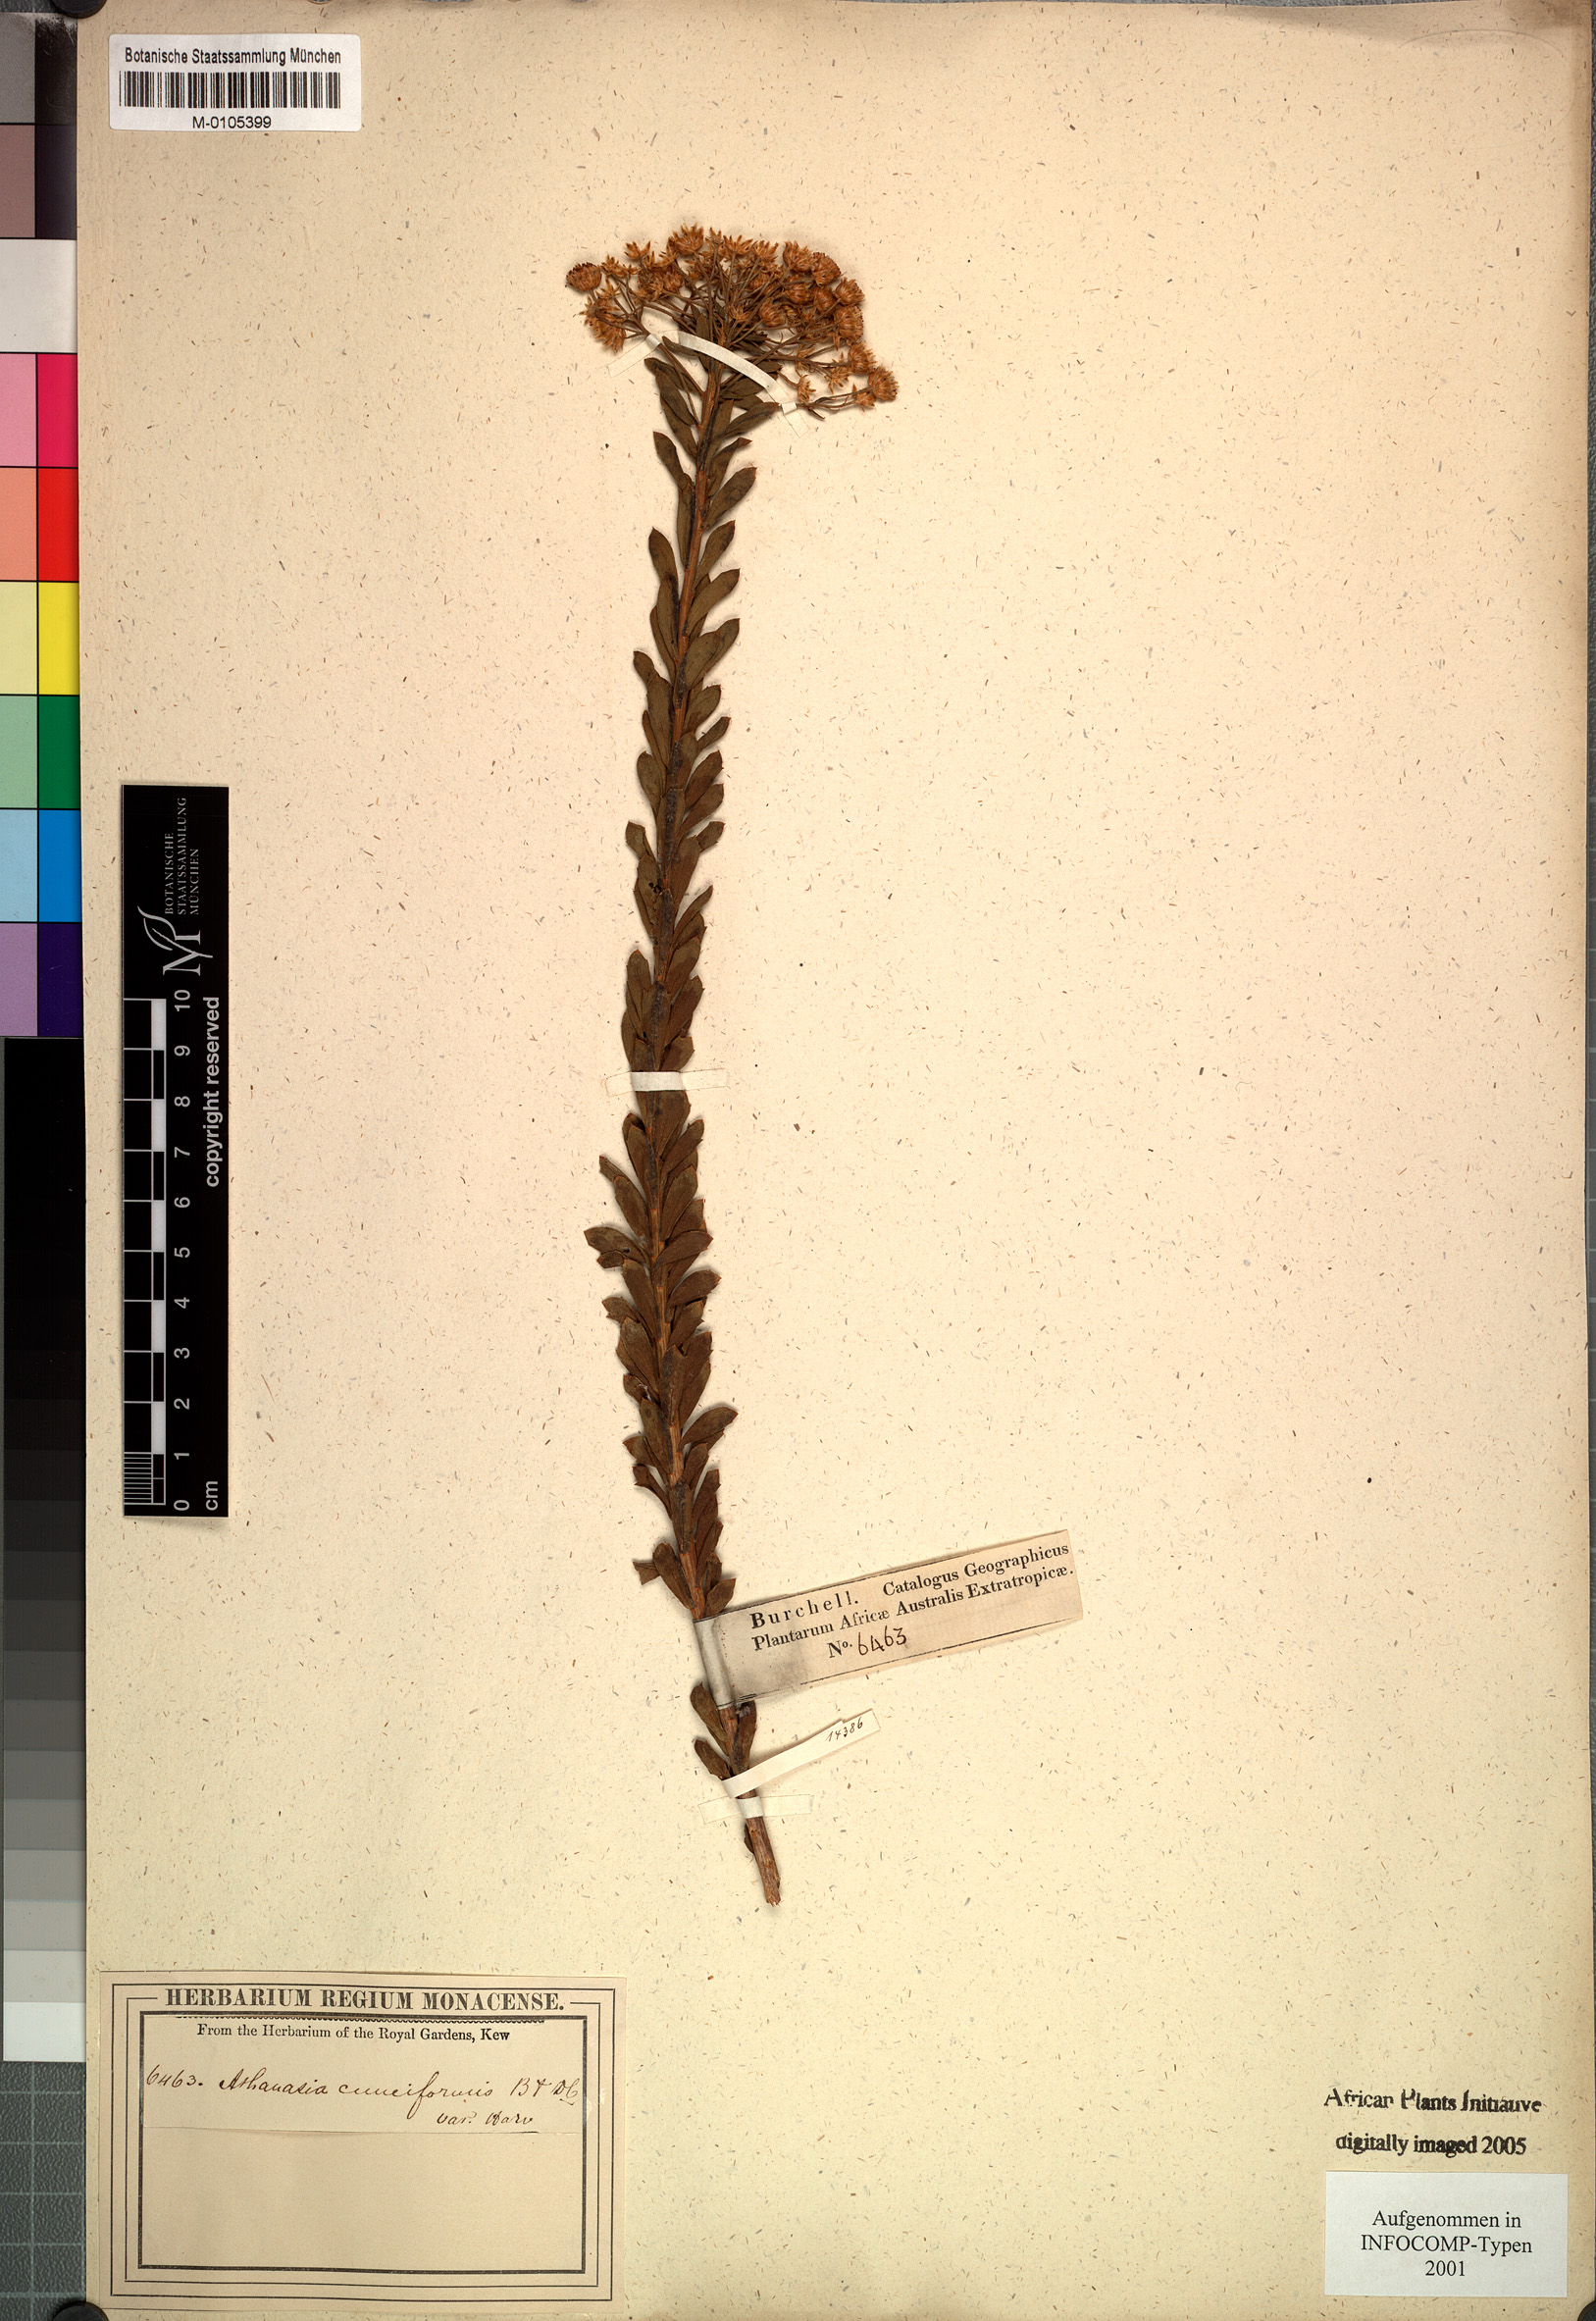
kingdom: Plantae
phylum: Tracheophyta
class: Magnoliopsida
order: Asterales
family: Asteraceae
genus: Athanasia
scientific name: Athanasia trifurcata
